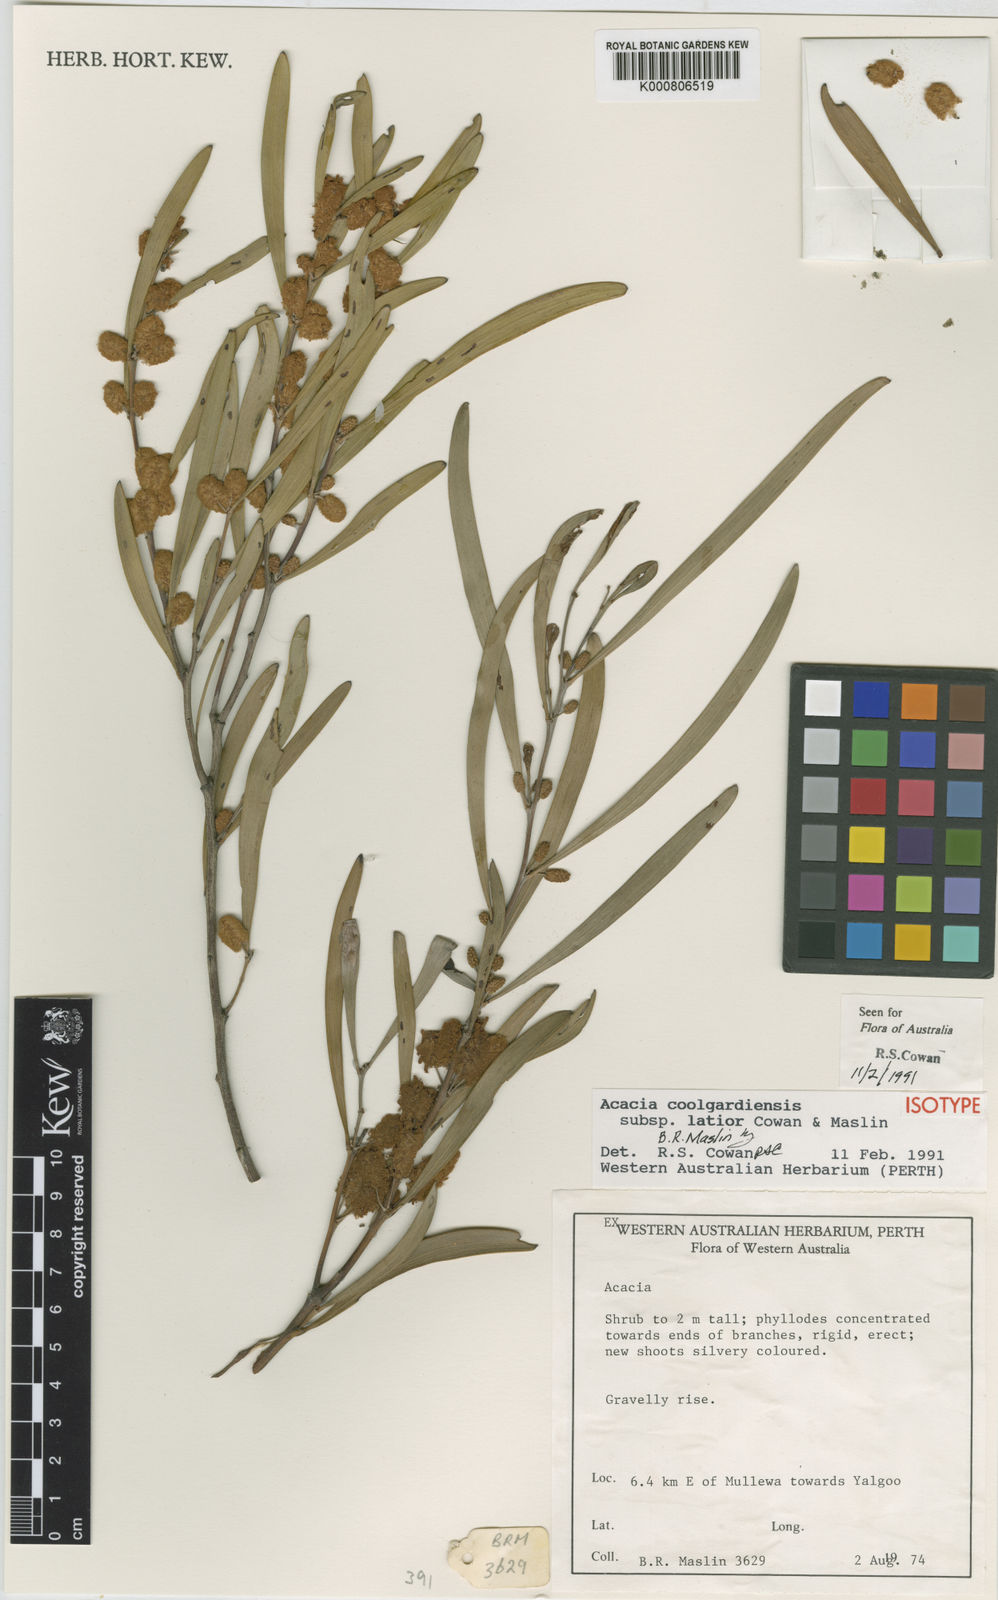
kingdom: Plantae
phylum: Tracheophyta
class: Magnoliopsida
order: Fabales
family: Fabaceae
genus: Acacia
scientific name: Acacia coolgardiensis
